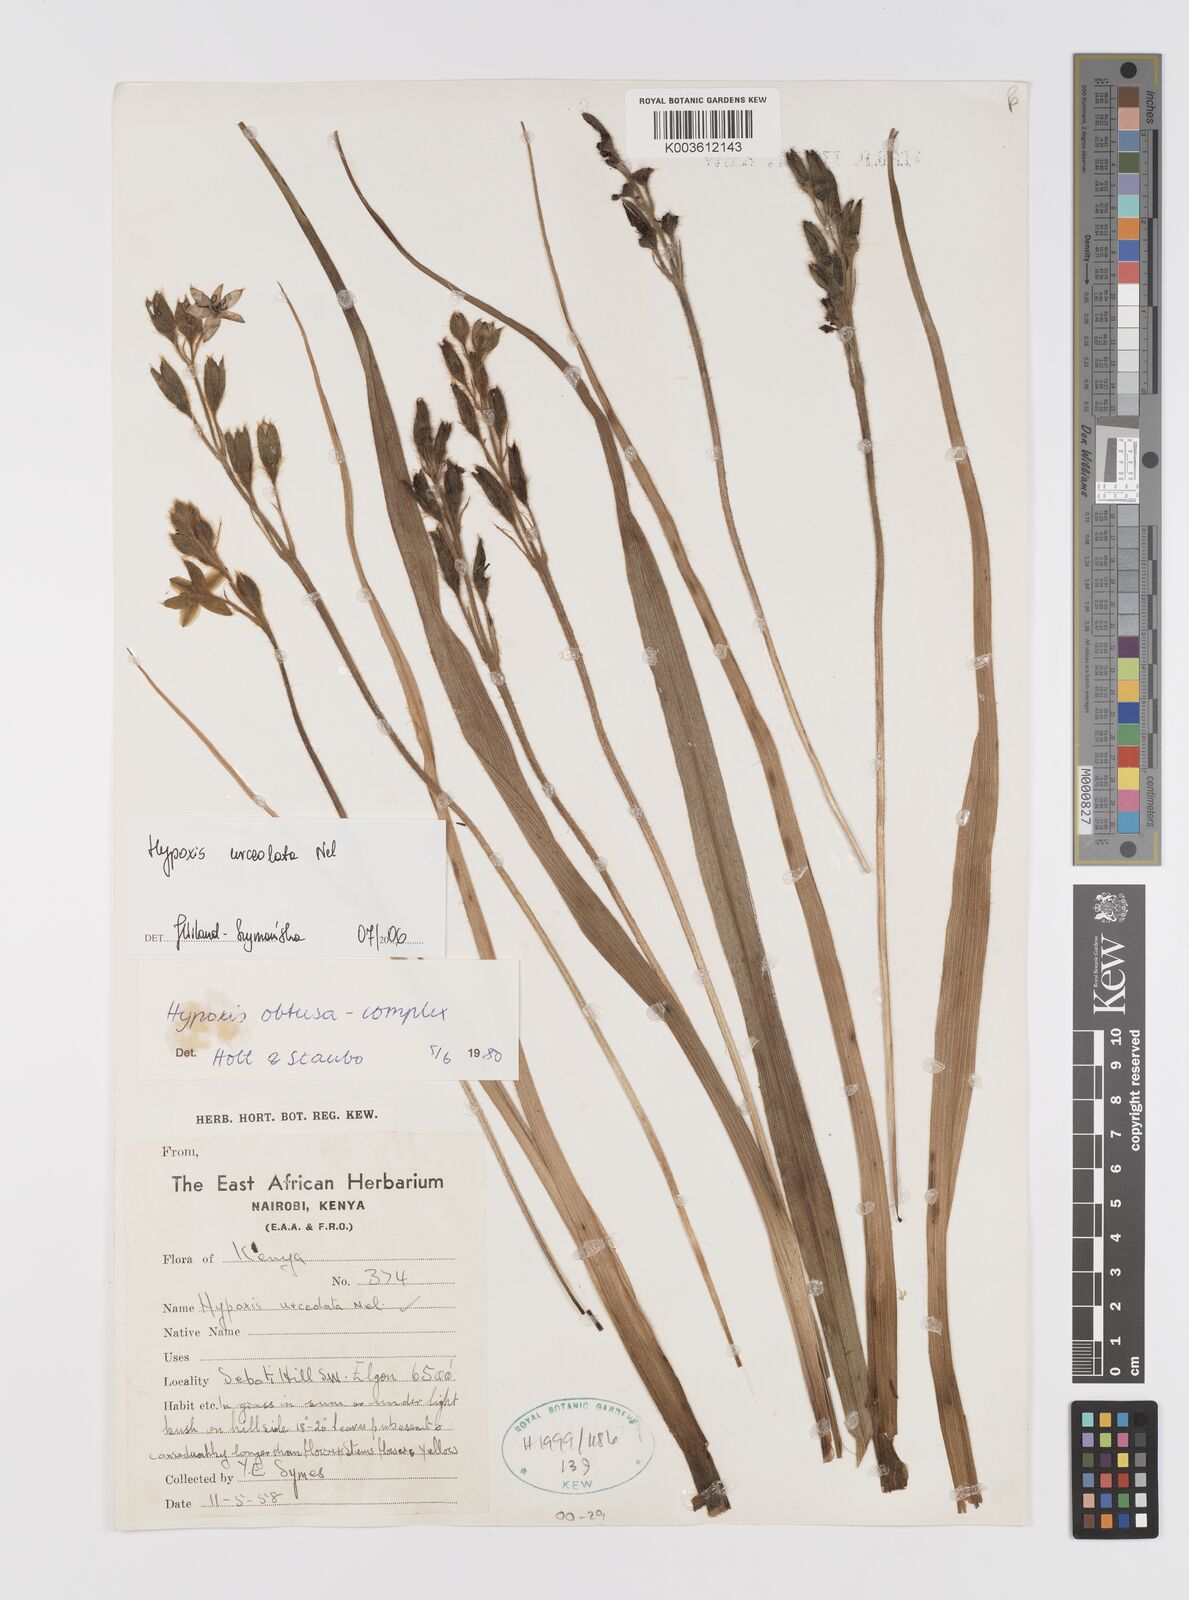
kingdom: Plantae
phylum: Tracheophyta
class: Liliopsida
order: Asparagales
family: Hypoxidaceae
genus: Hypoxis
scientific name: Hypoxis urceolata
